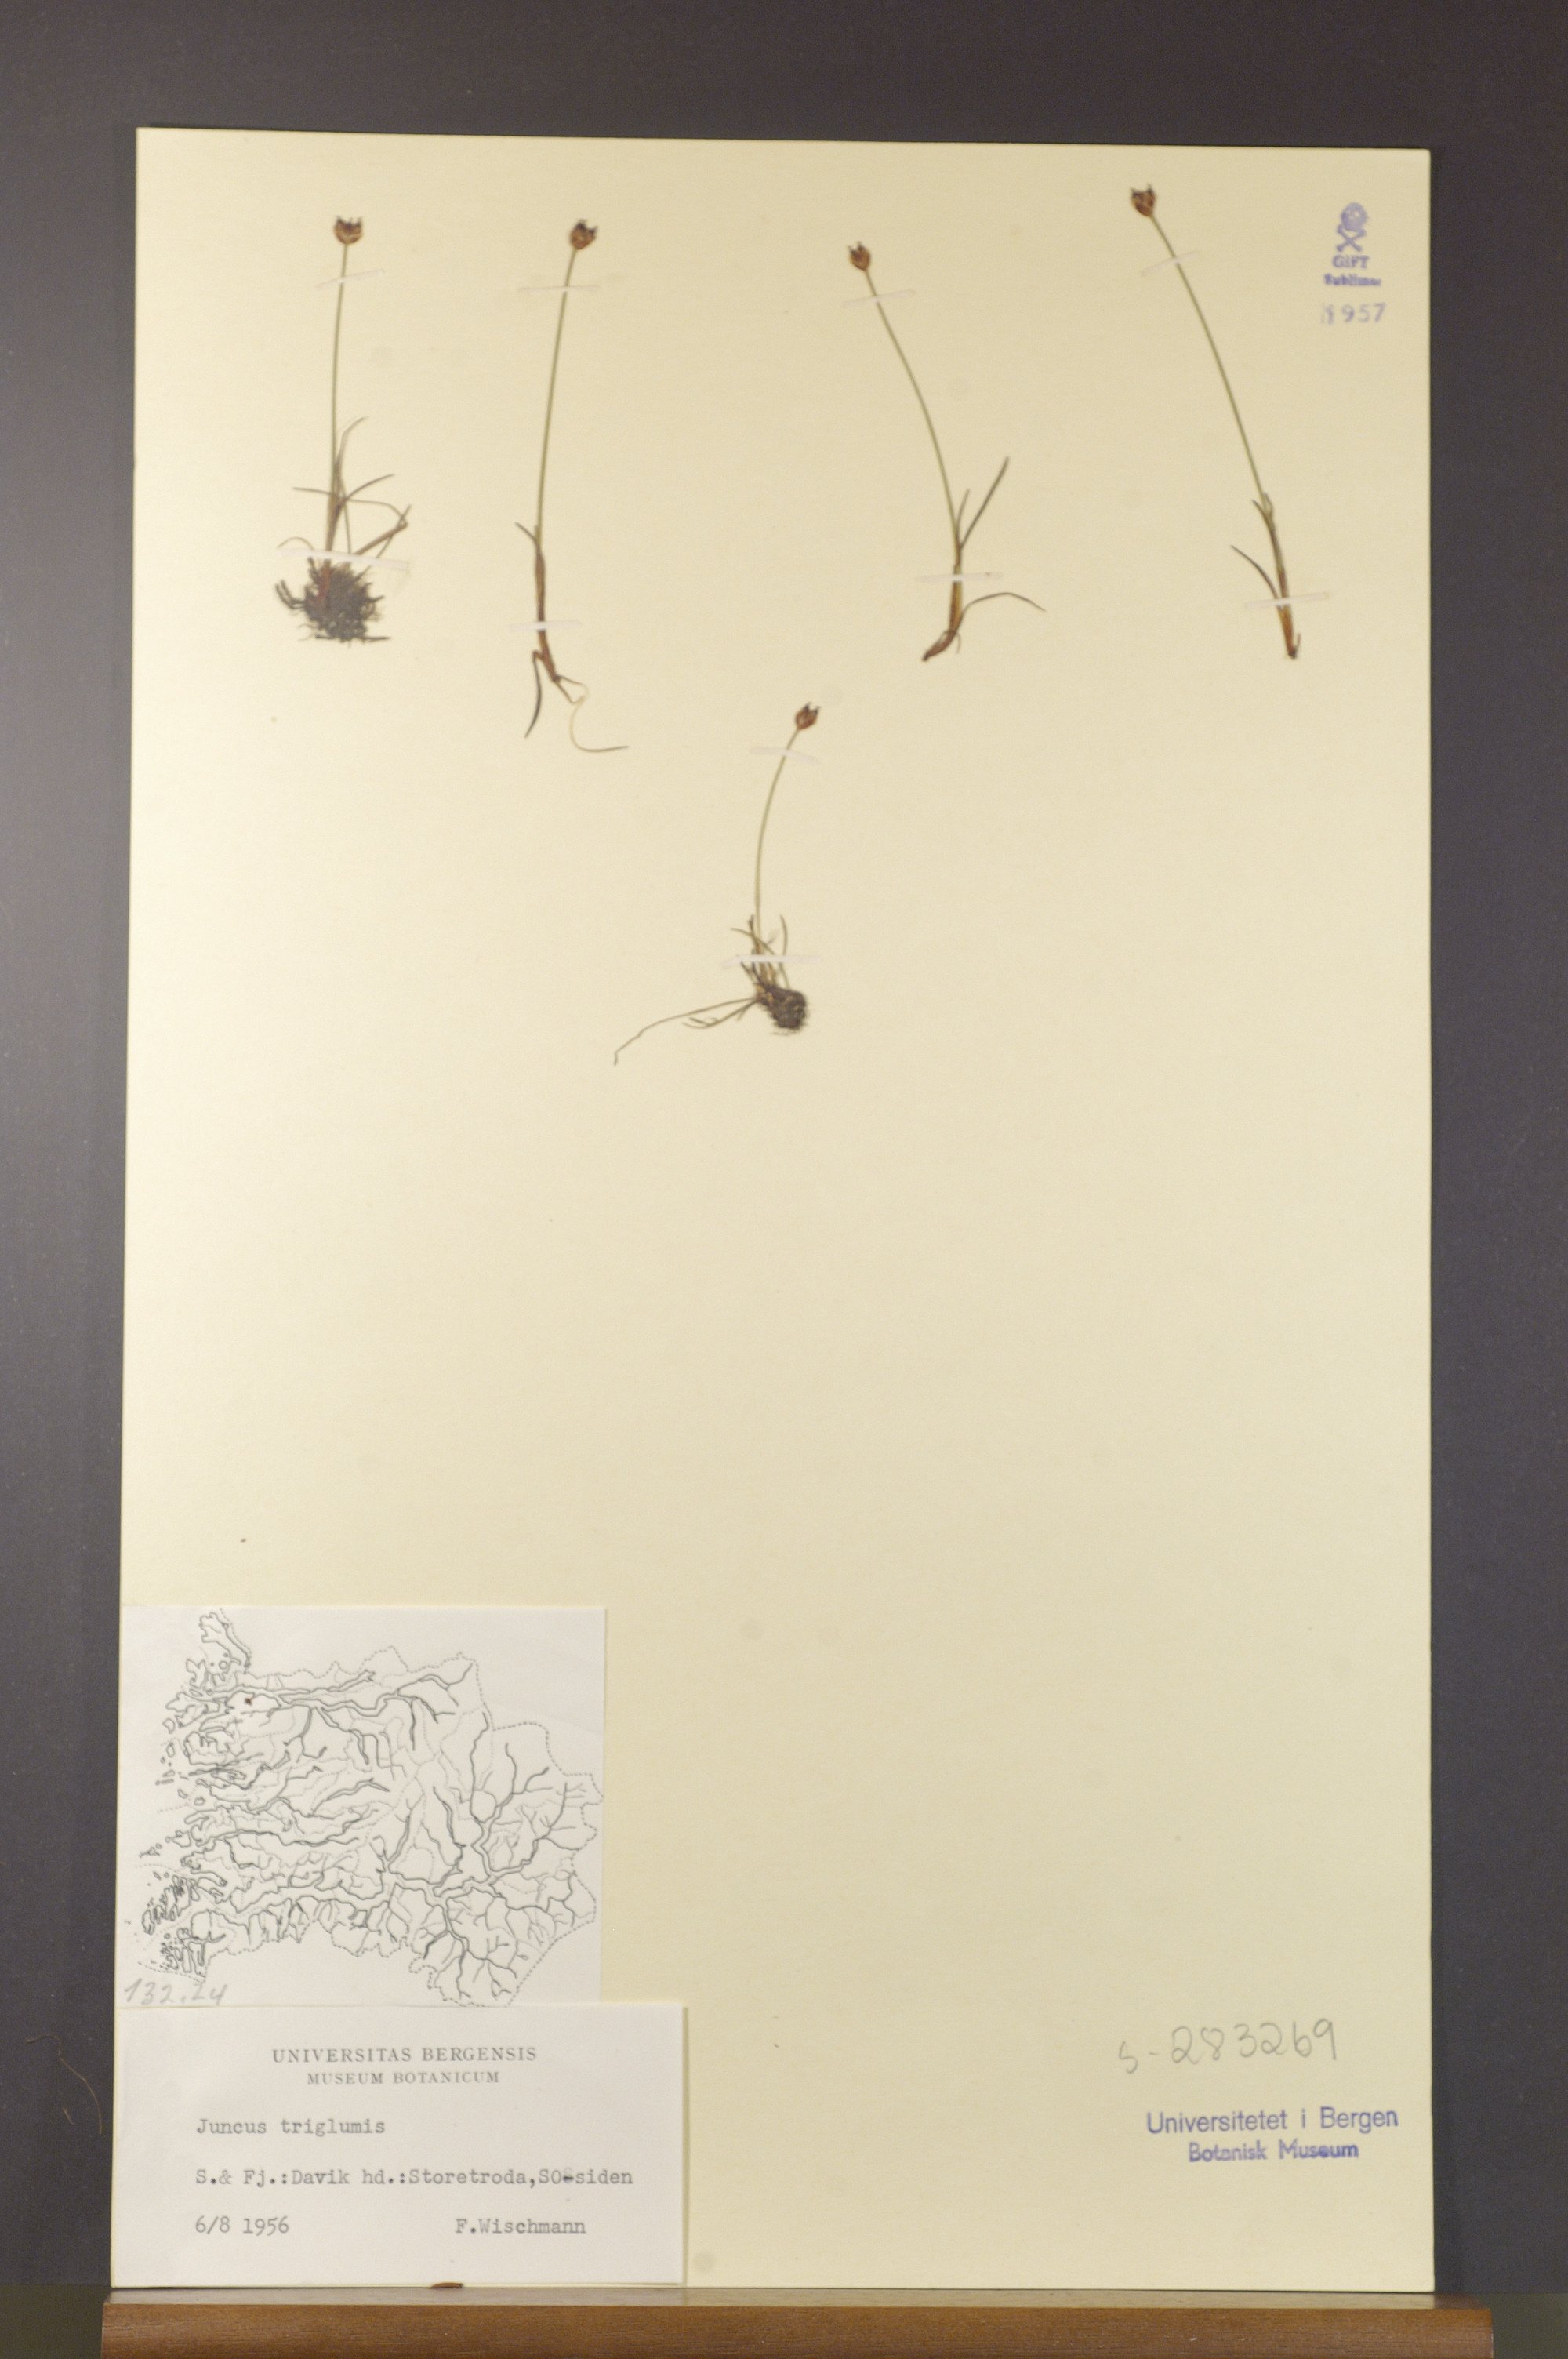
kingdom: Plantae
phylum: Tracheophyta
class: Liliopsida
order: Poales
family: Juncaceae
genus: Juncus
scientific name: Juncus triglumis
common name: Three-flowered rush
